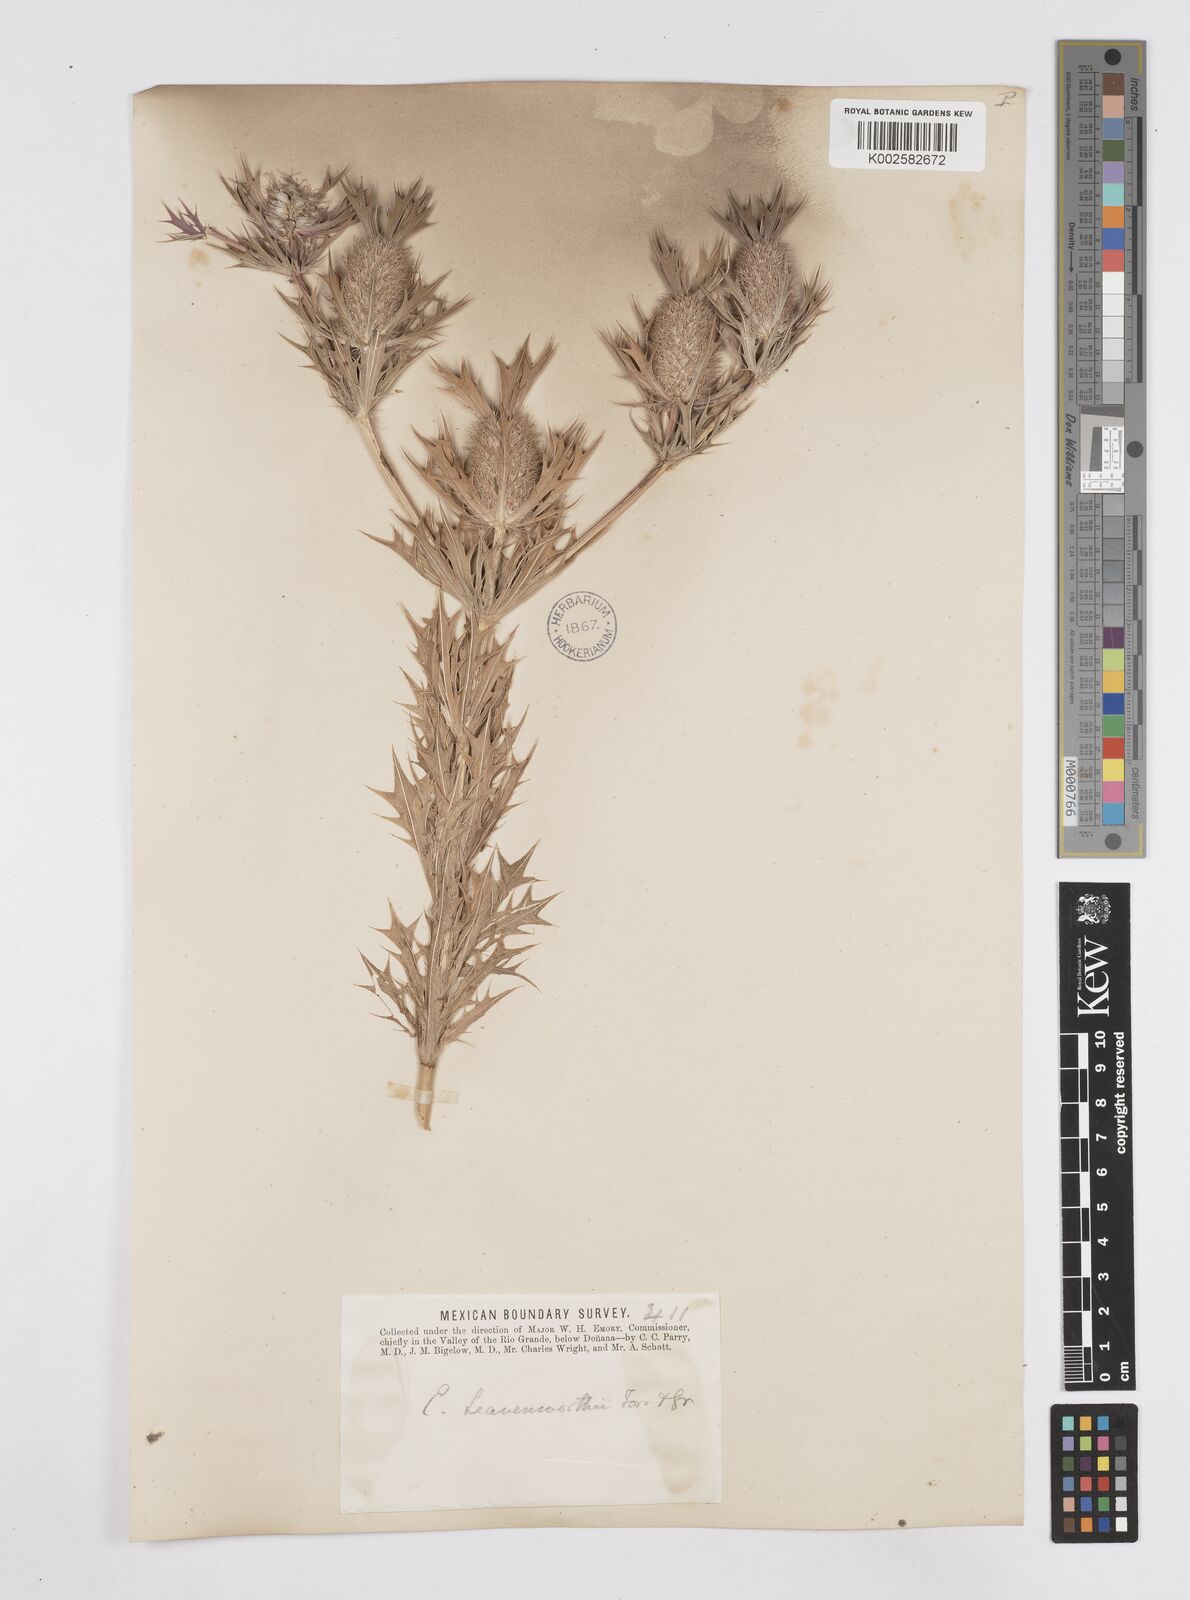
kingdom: Plantae
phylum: Tracheophyta
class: Magnoliopsida
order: Apiales
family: Apiaceae
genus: Eryngium
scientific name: Eryngium leavenworthii
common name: Leavenworth's eryngo
